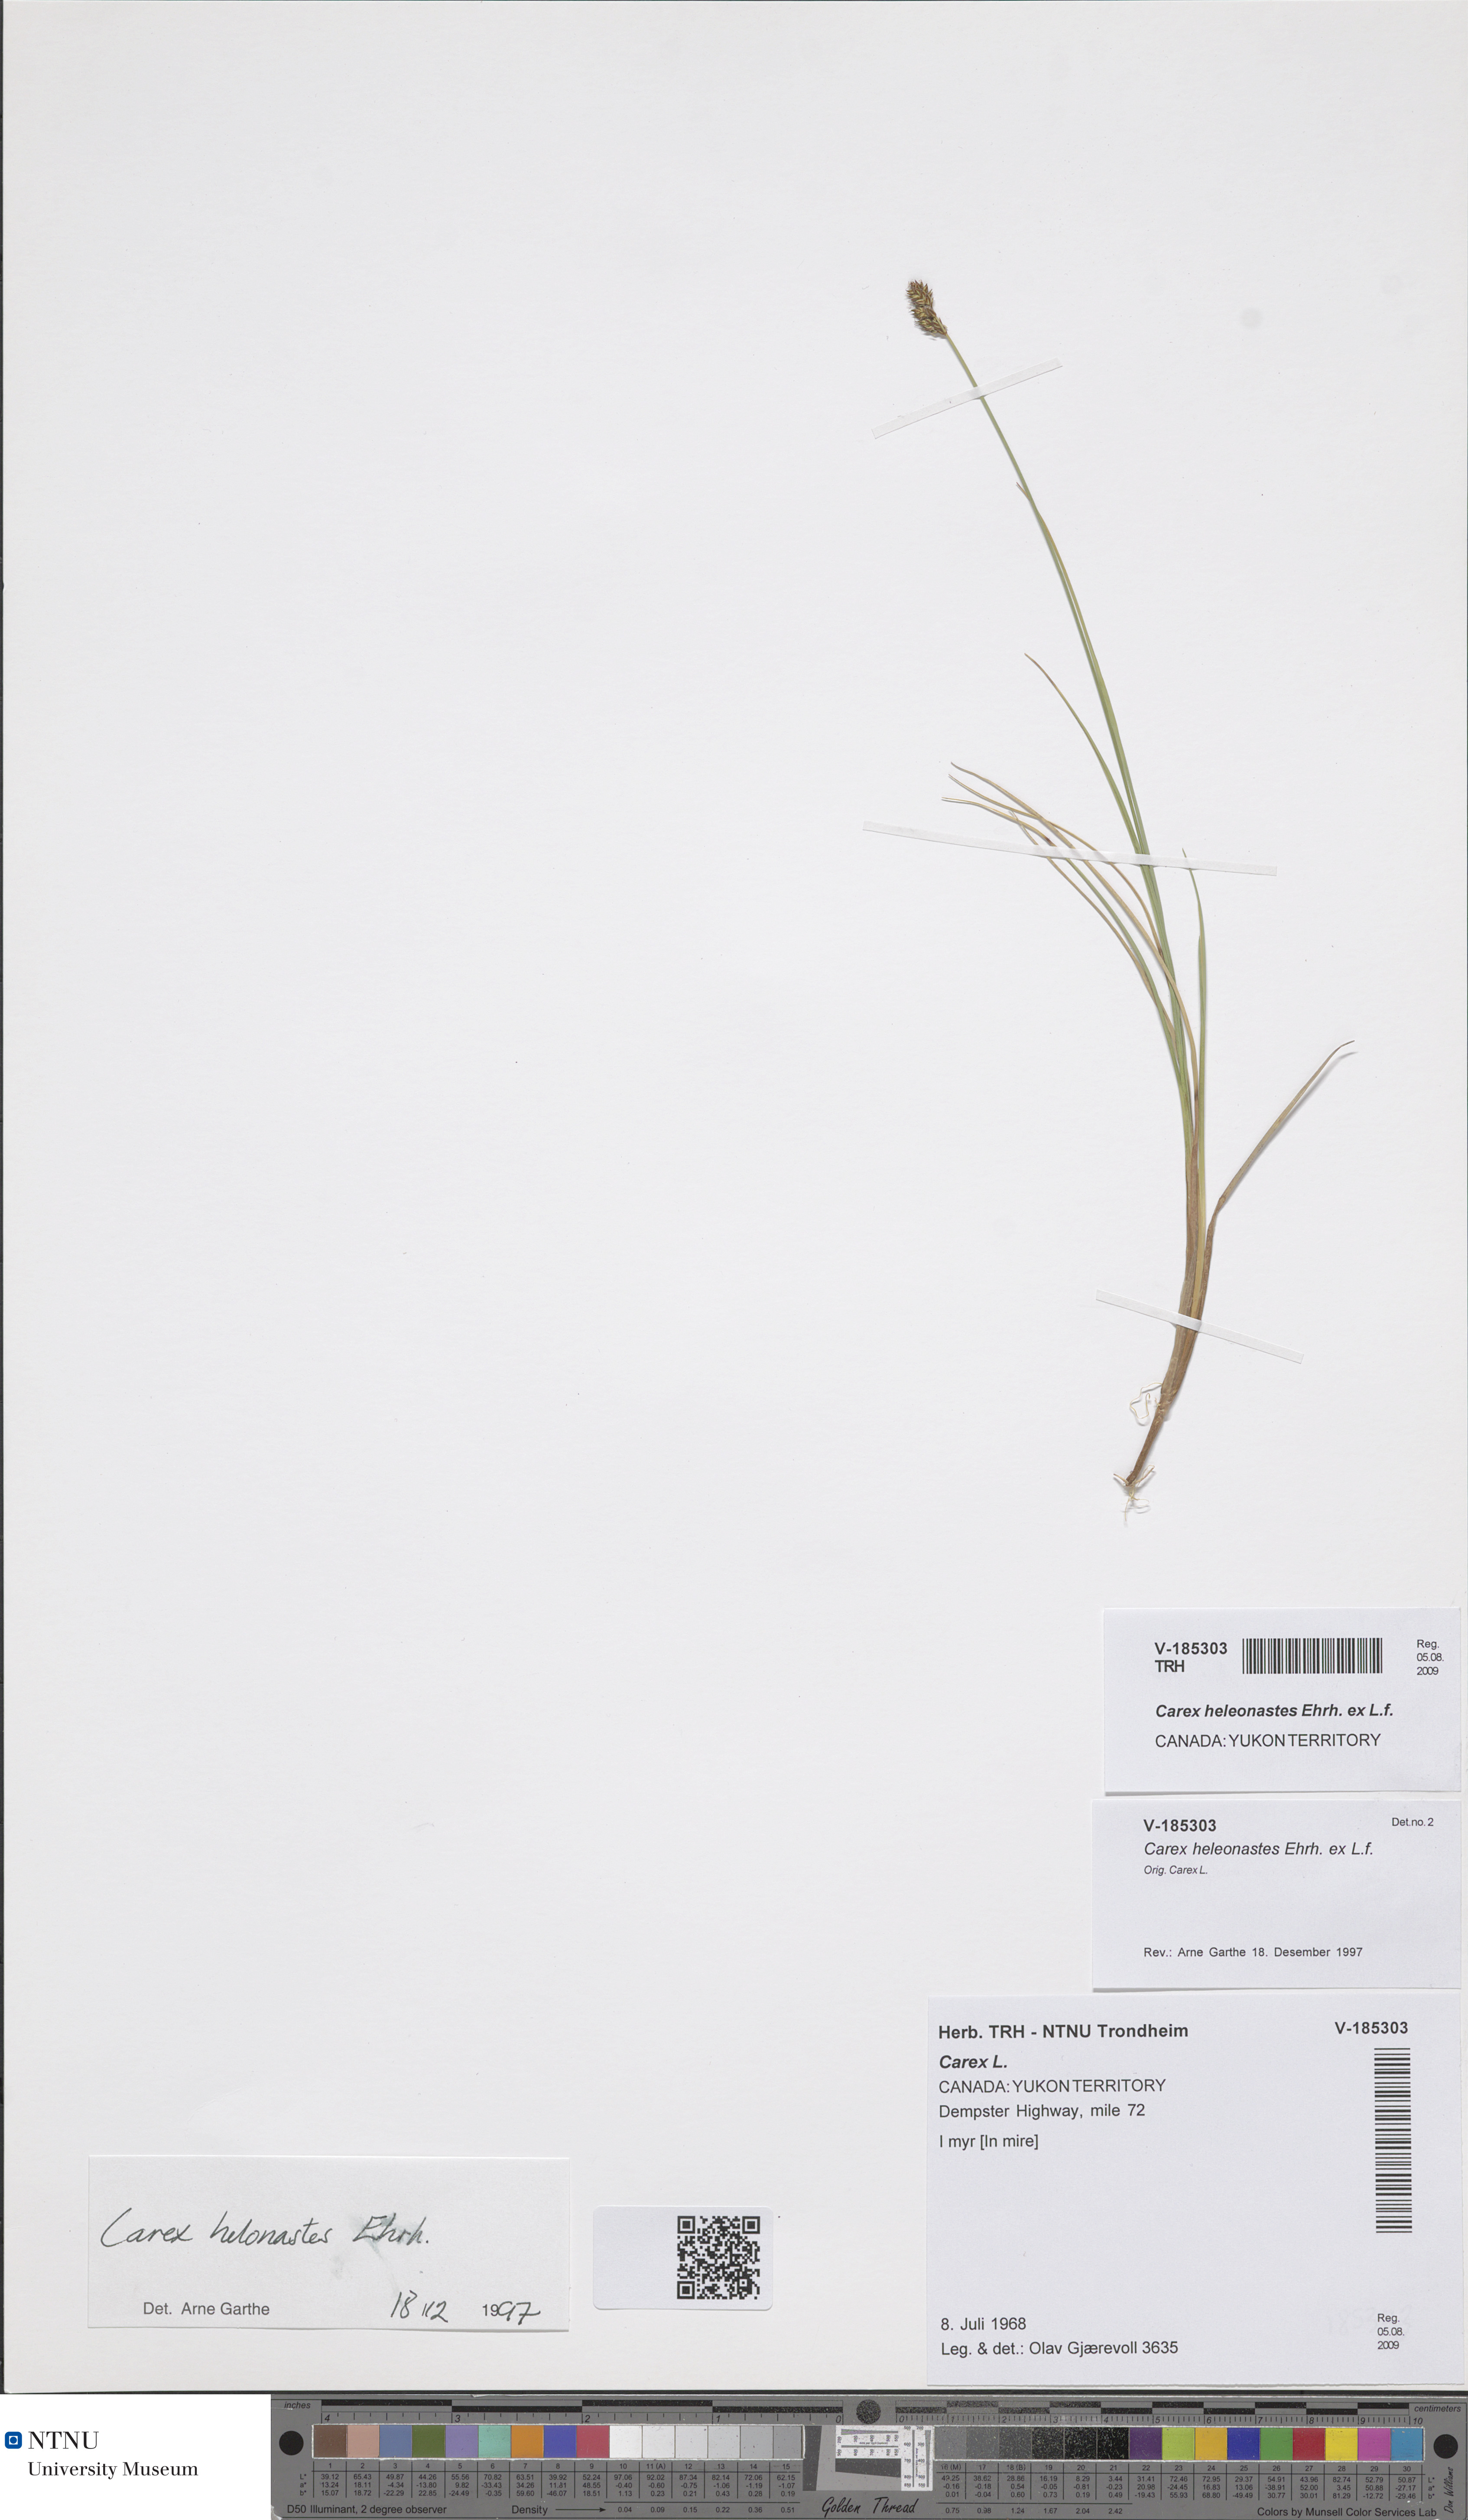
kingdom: Plantae
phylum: Tracheophyta
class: Liliopsida
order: Poales
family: Cyperaceae
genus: Carex
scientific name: Carex heleonastes
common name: Hudson bay sedge
